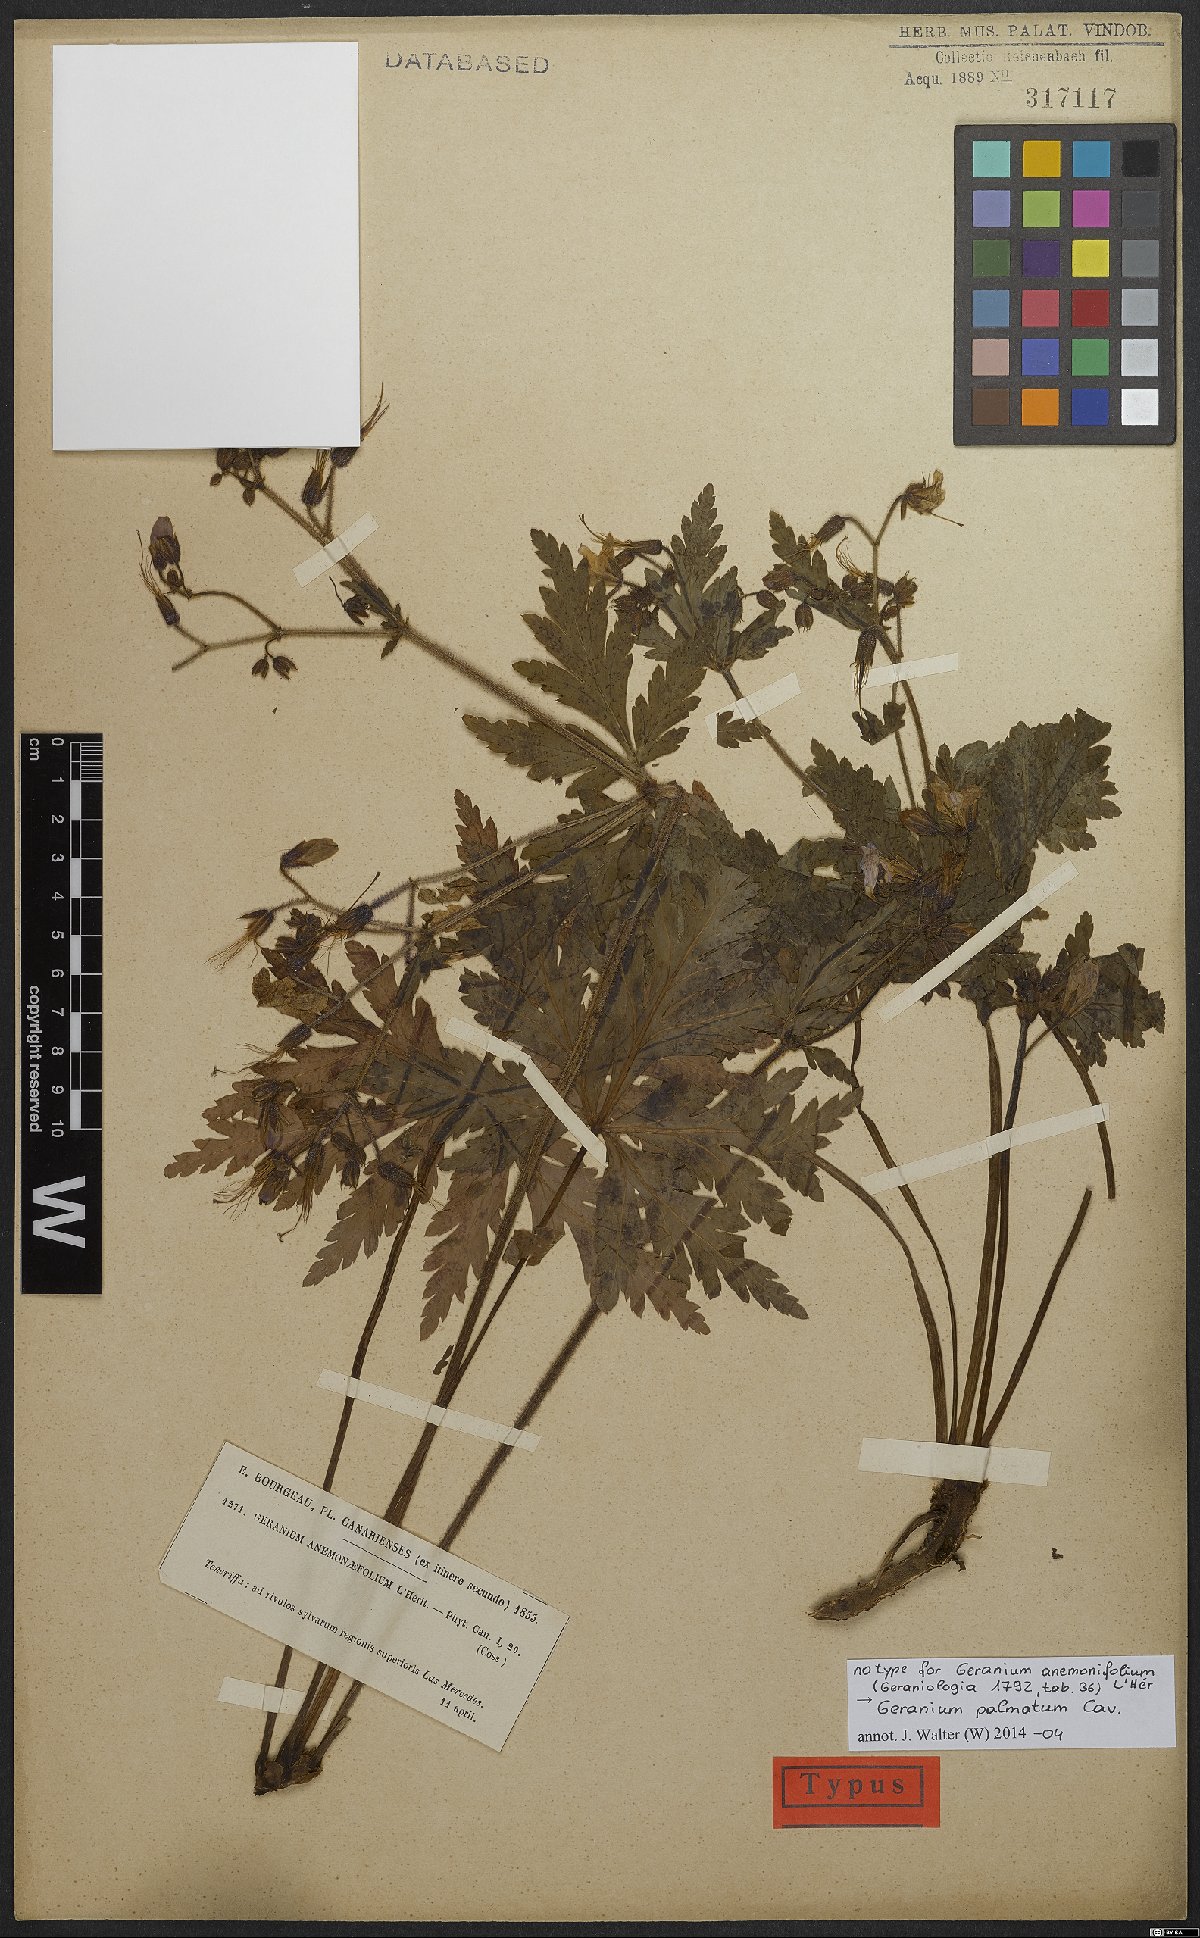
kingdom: Plantae
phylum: Tracheophyta
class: Magnoliopsida
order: Geraniales
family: Geraniaceae
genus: Geranium
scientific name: Geranium palmatum
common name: Canary island geranium
